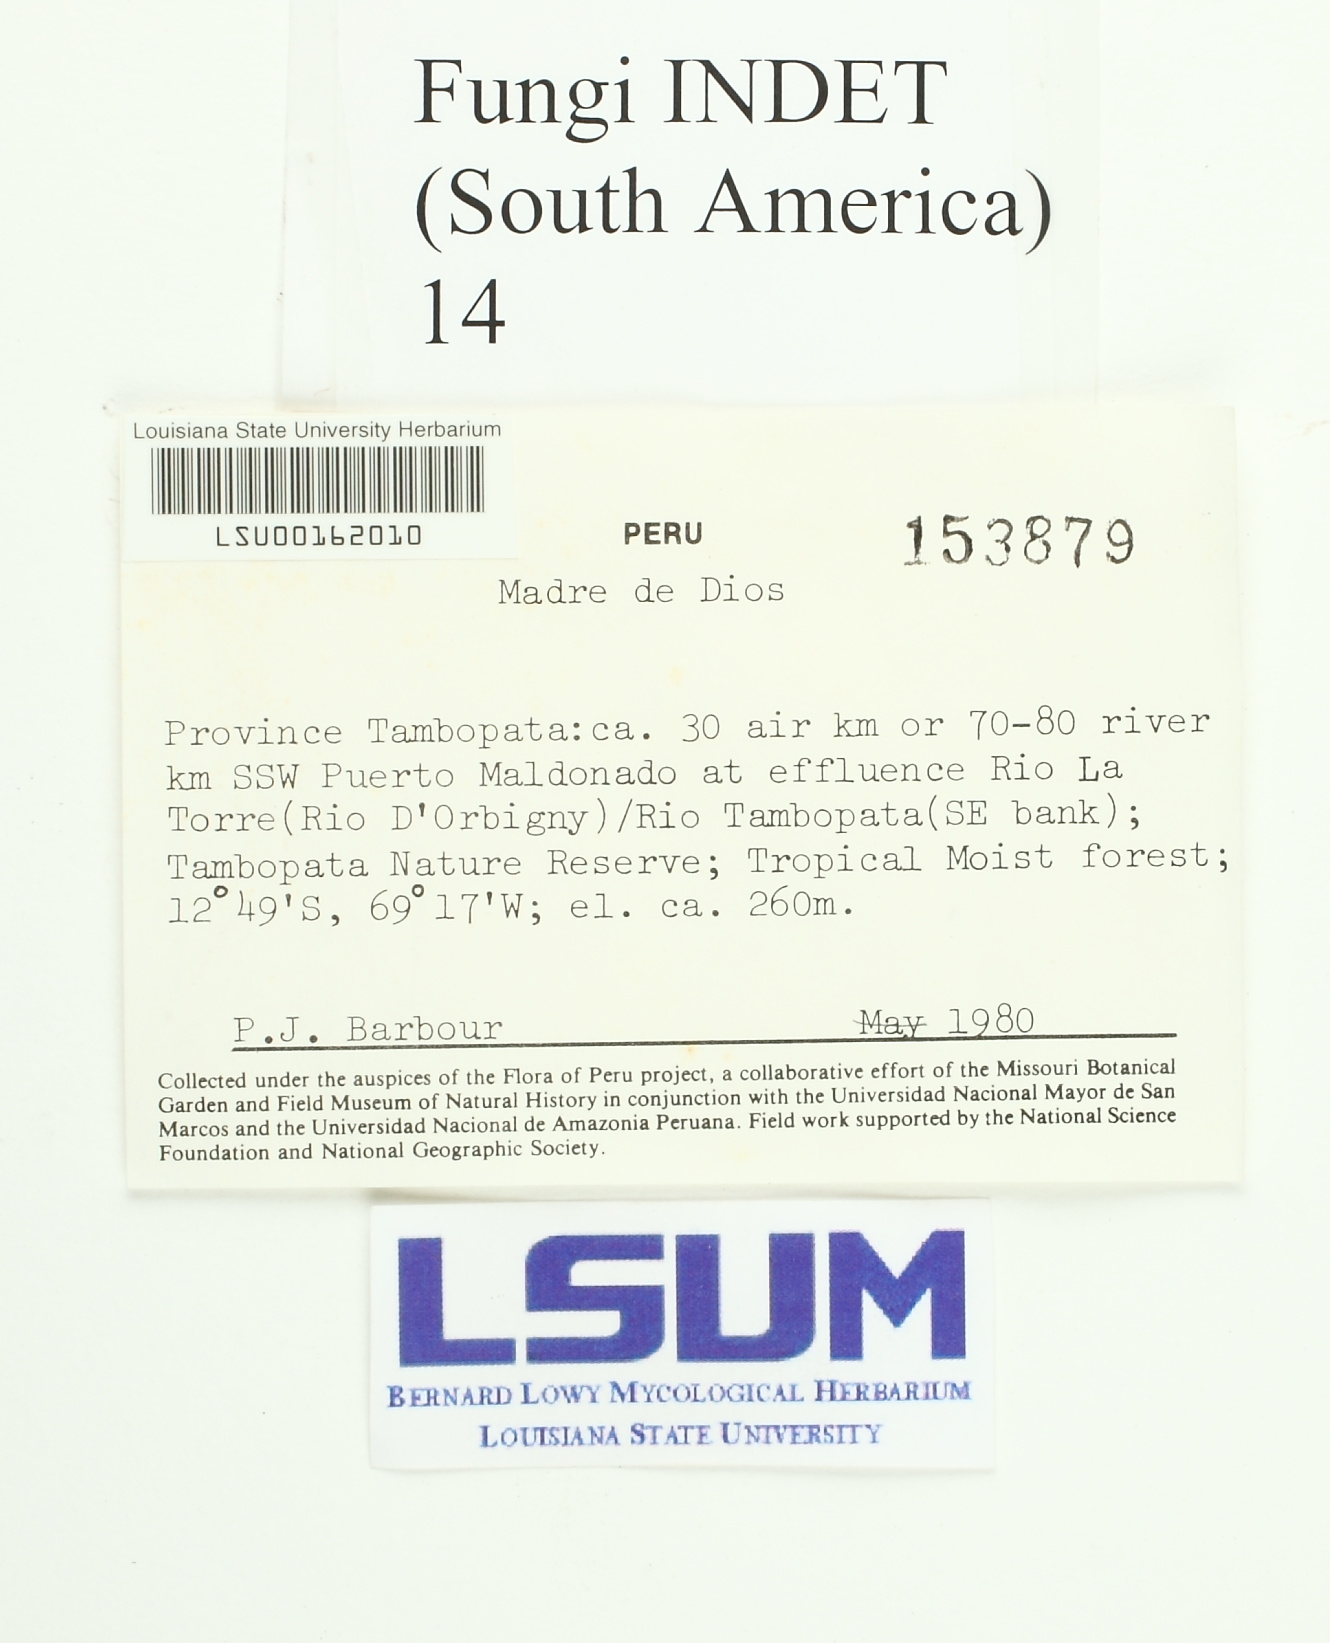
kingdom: Fungi
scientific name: Fungi
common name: Fungi
